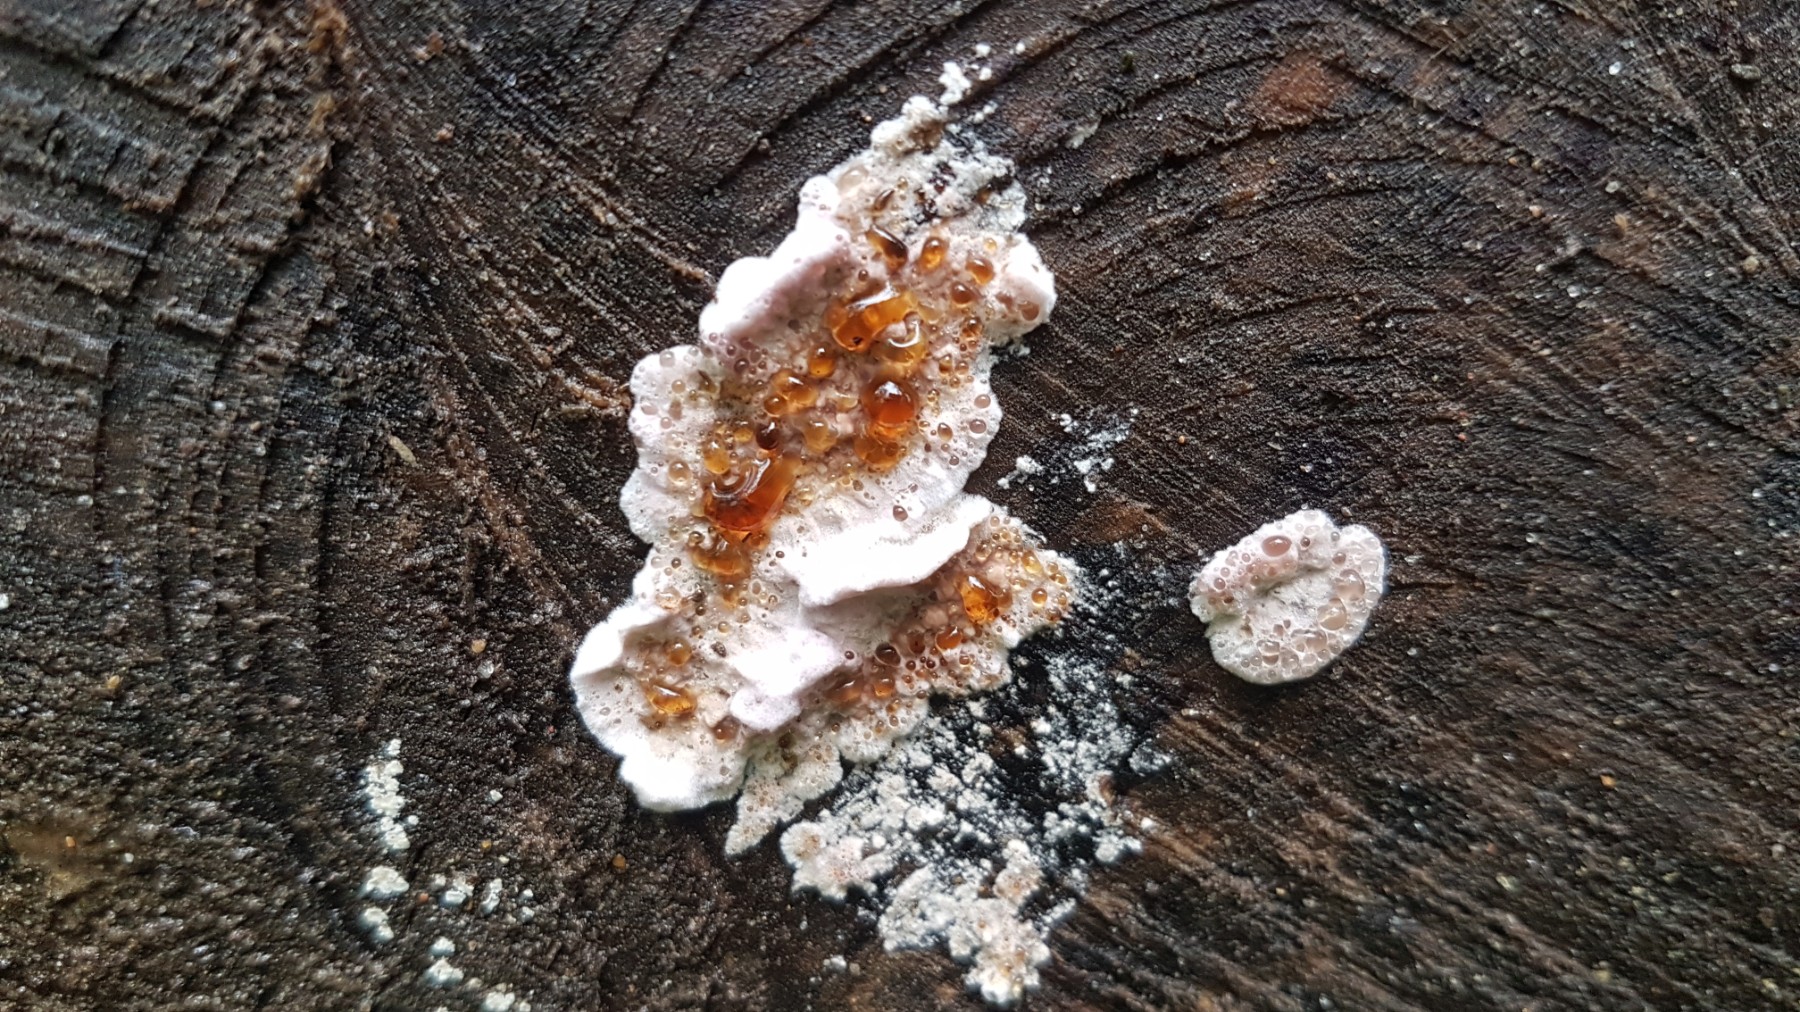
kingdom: Fungi
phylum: Basidiomycota
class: Agaricomycetes
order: Polyporales
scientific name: Polyporales
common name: poresvampordenen
